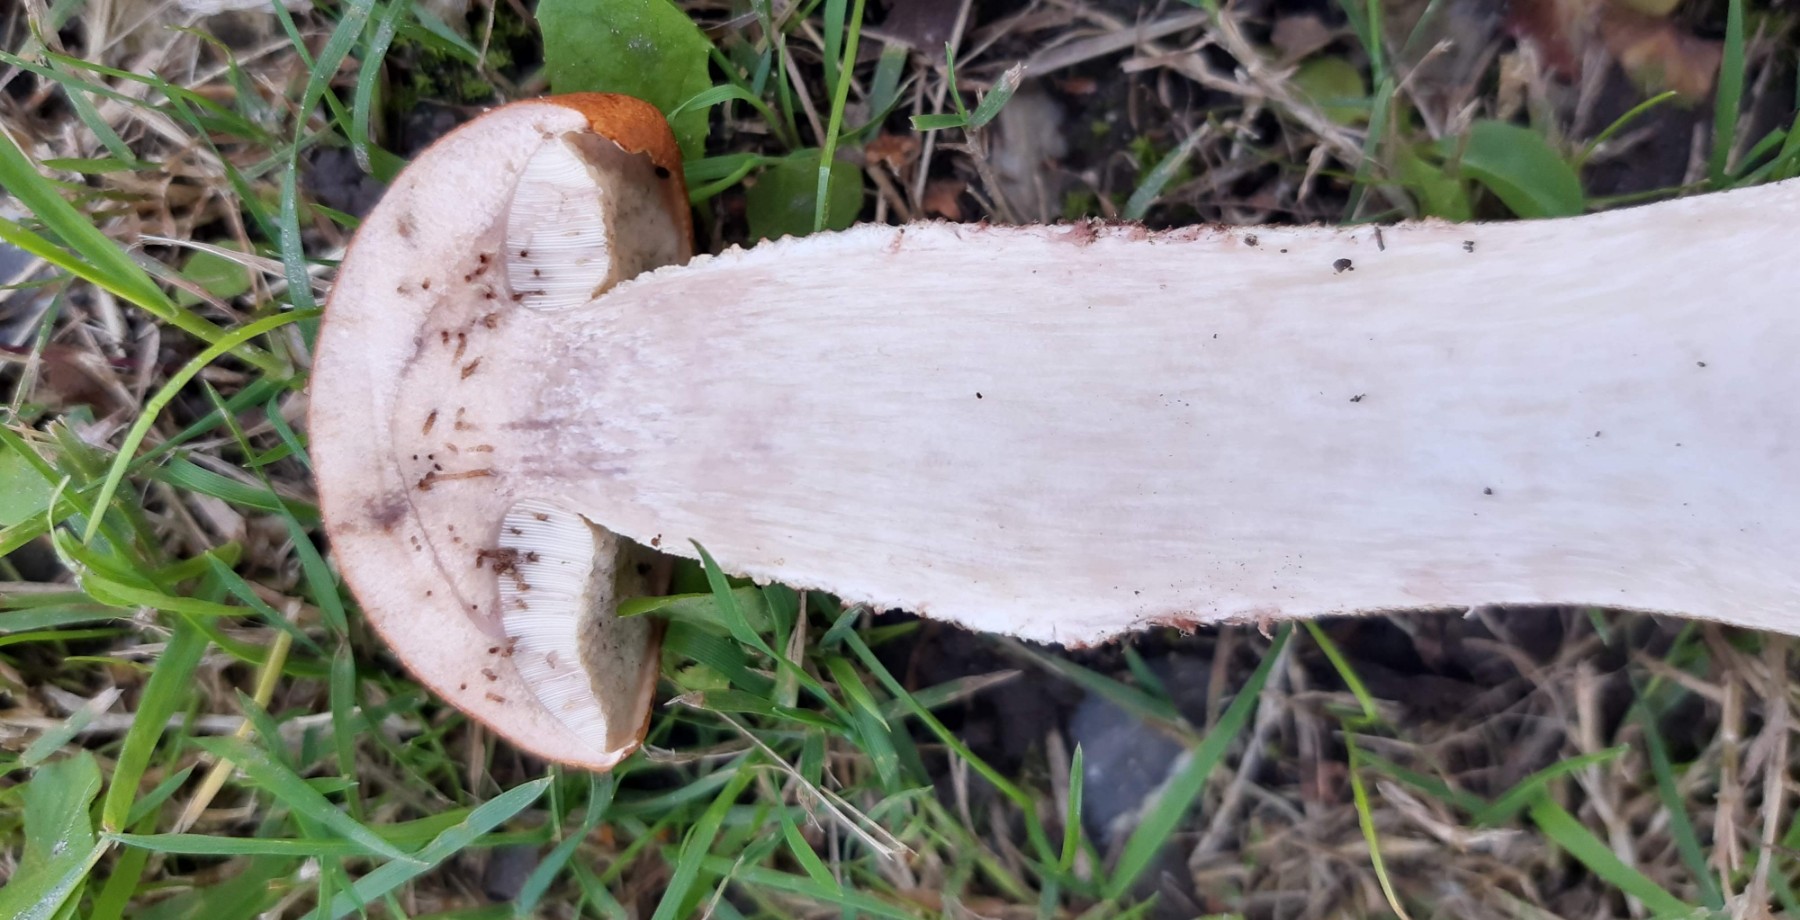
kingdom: Fungi
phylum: Basidiomycota
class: Agaricomycetes
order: Boletales
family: Boletaceae
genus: Leccinum
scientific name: Leccinum versipelle
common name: orange skælrørhat
